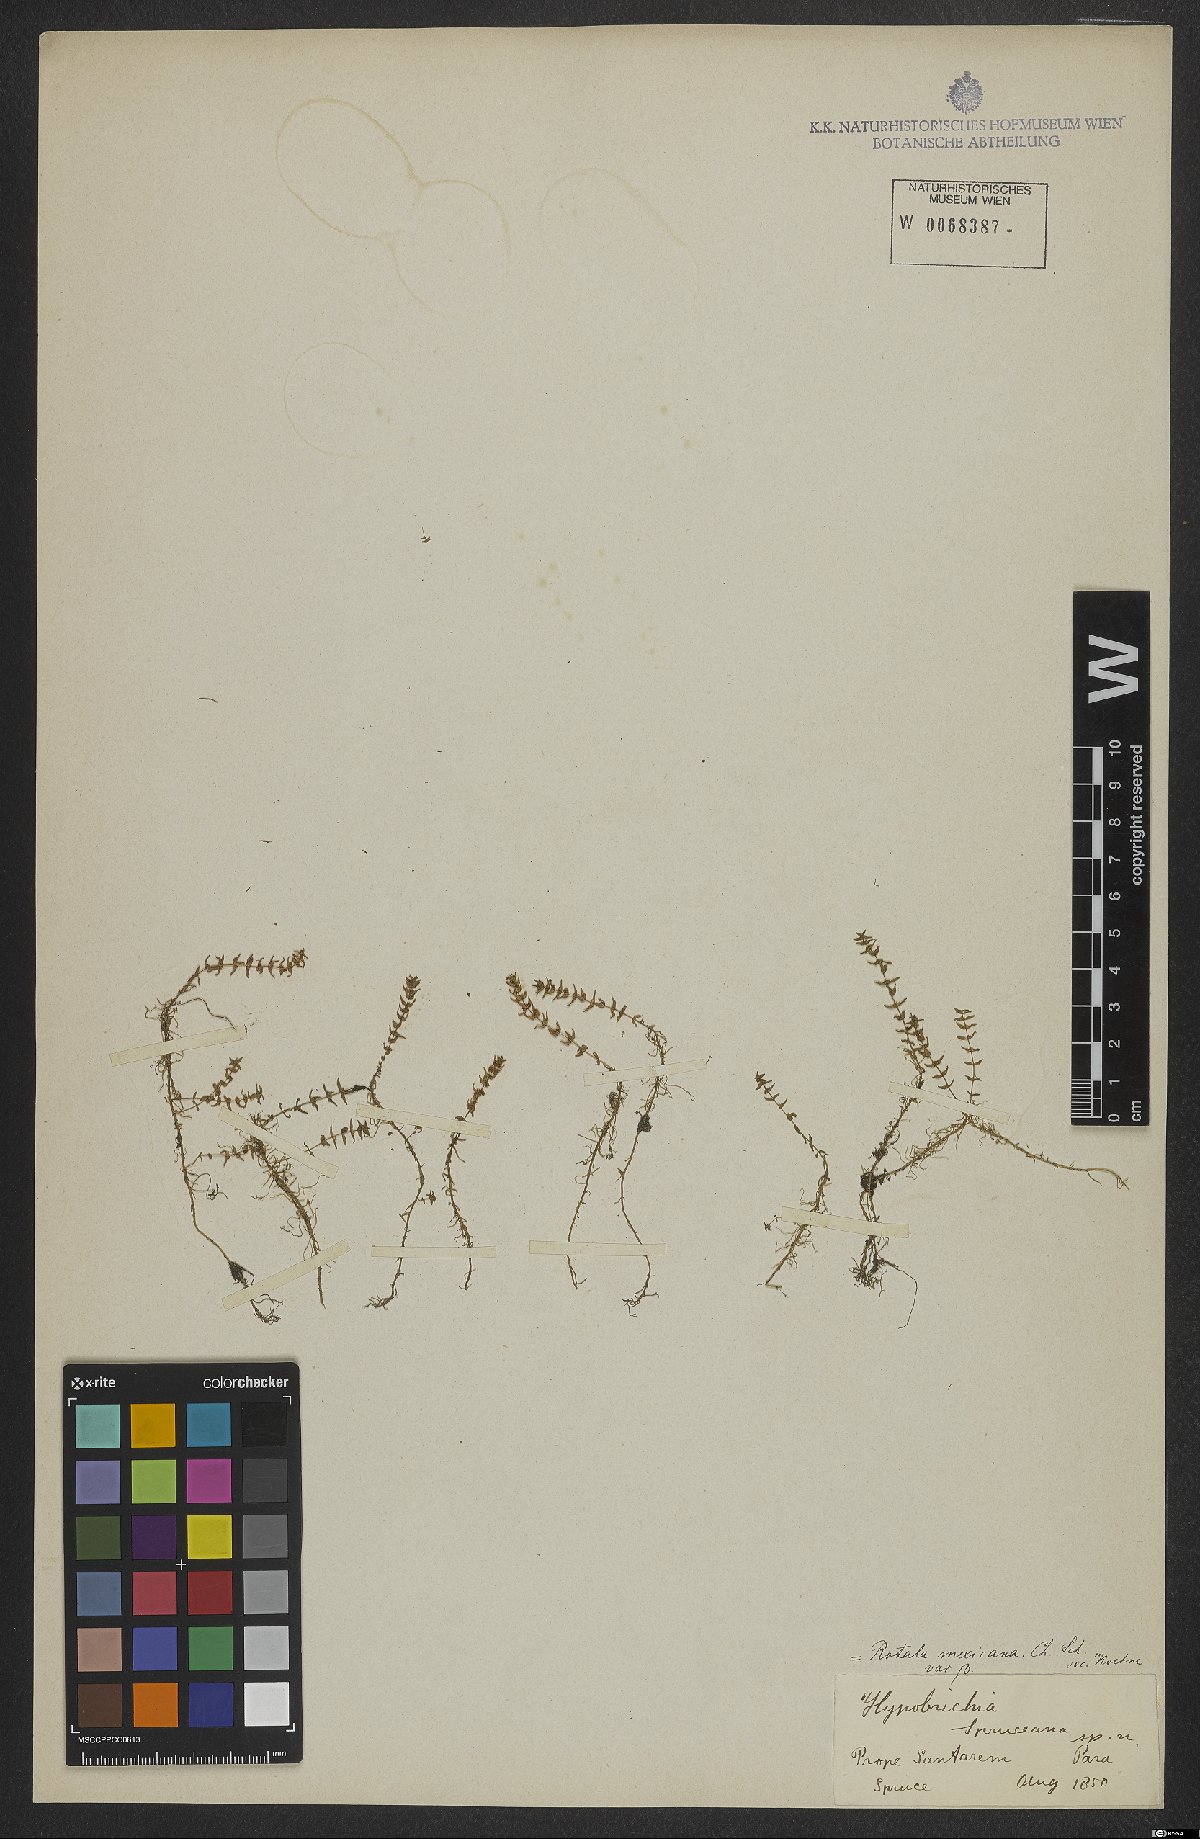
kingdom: Plantae
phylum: Tracheophyta
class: Magnoliopsida
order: Myrtales
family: Lythraceae
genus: Rotala
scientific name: Rotala mexicana
